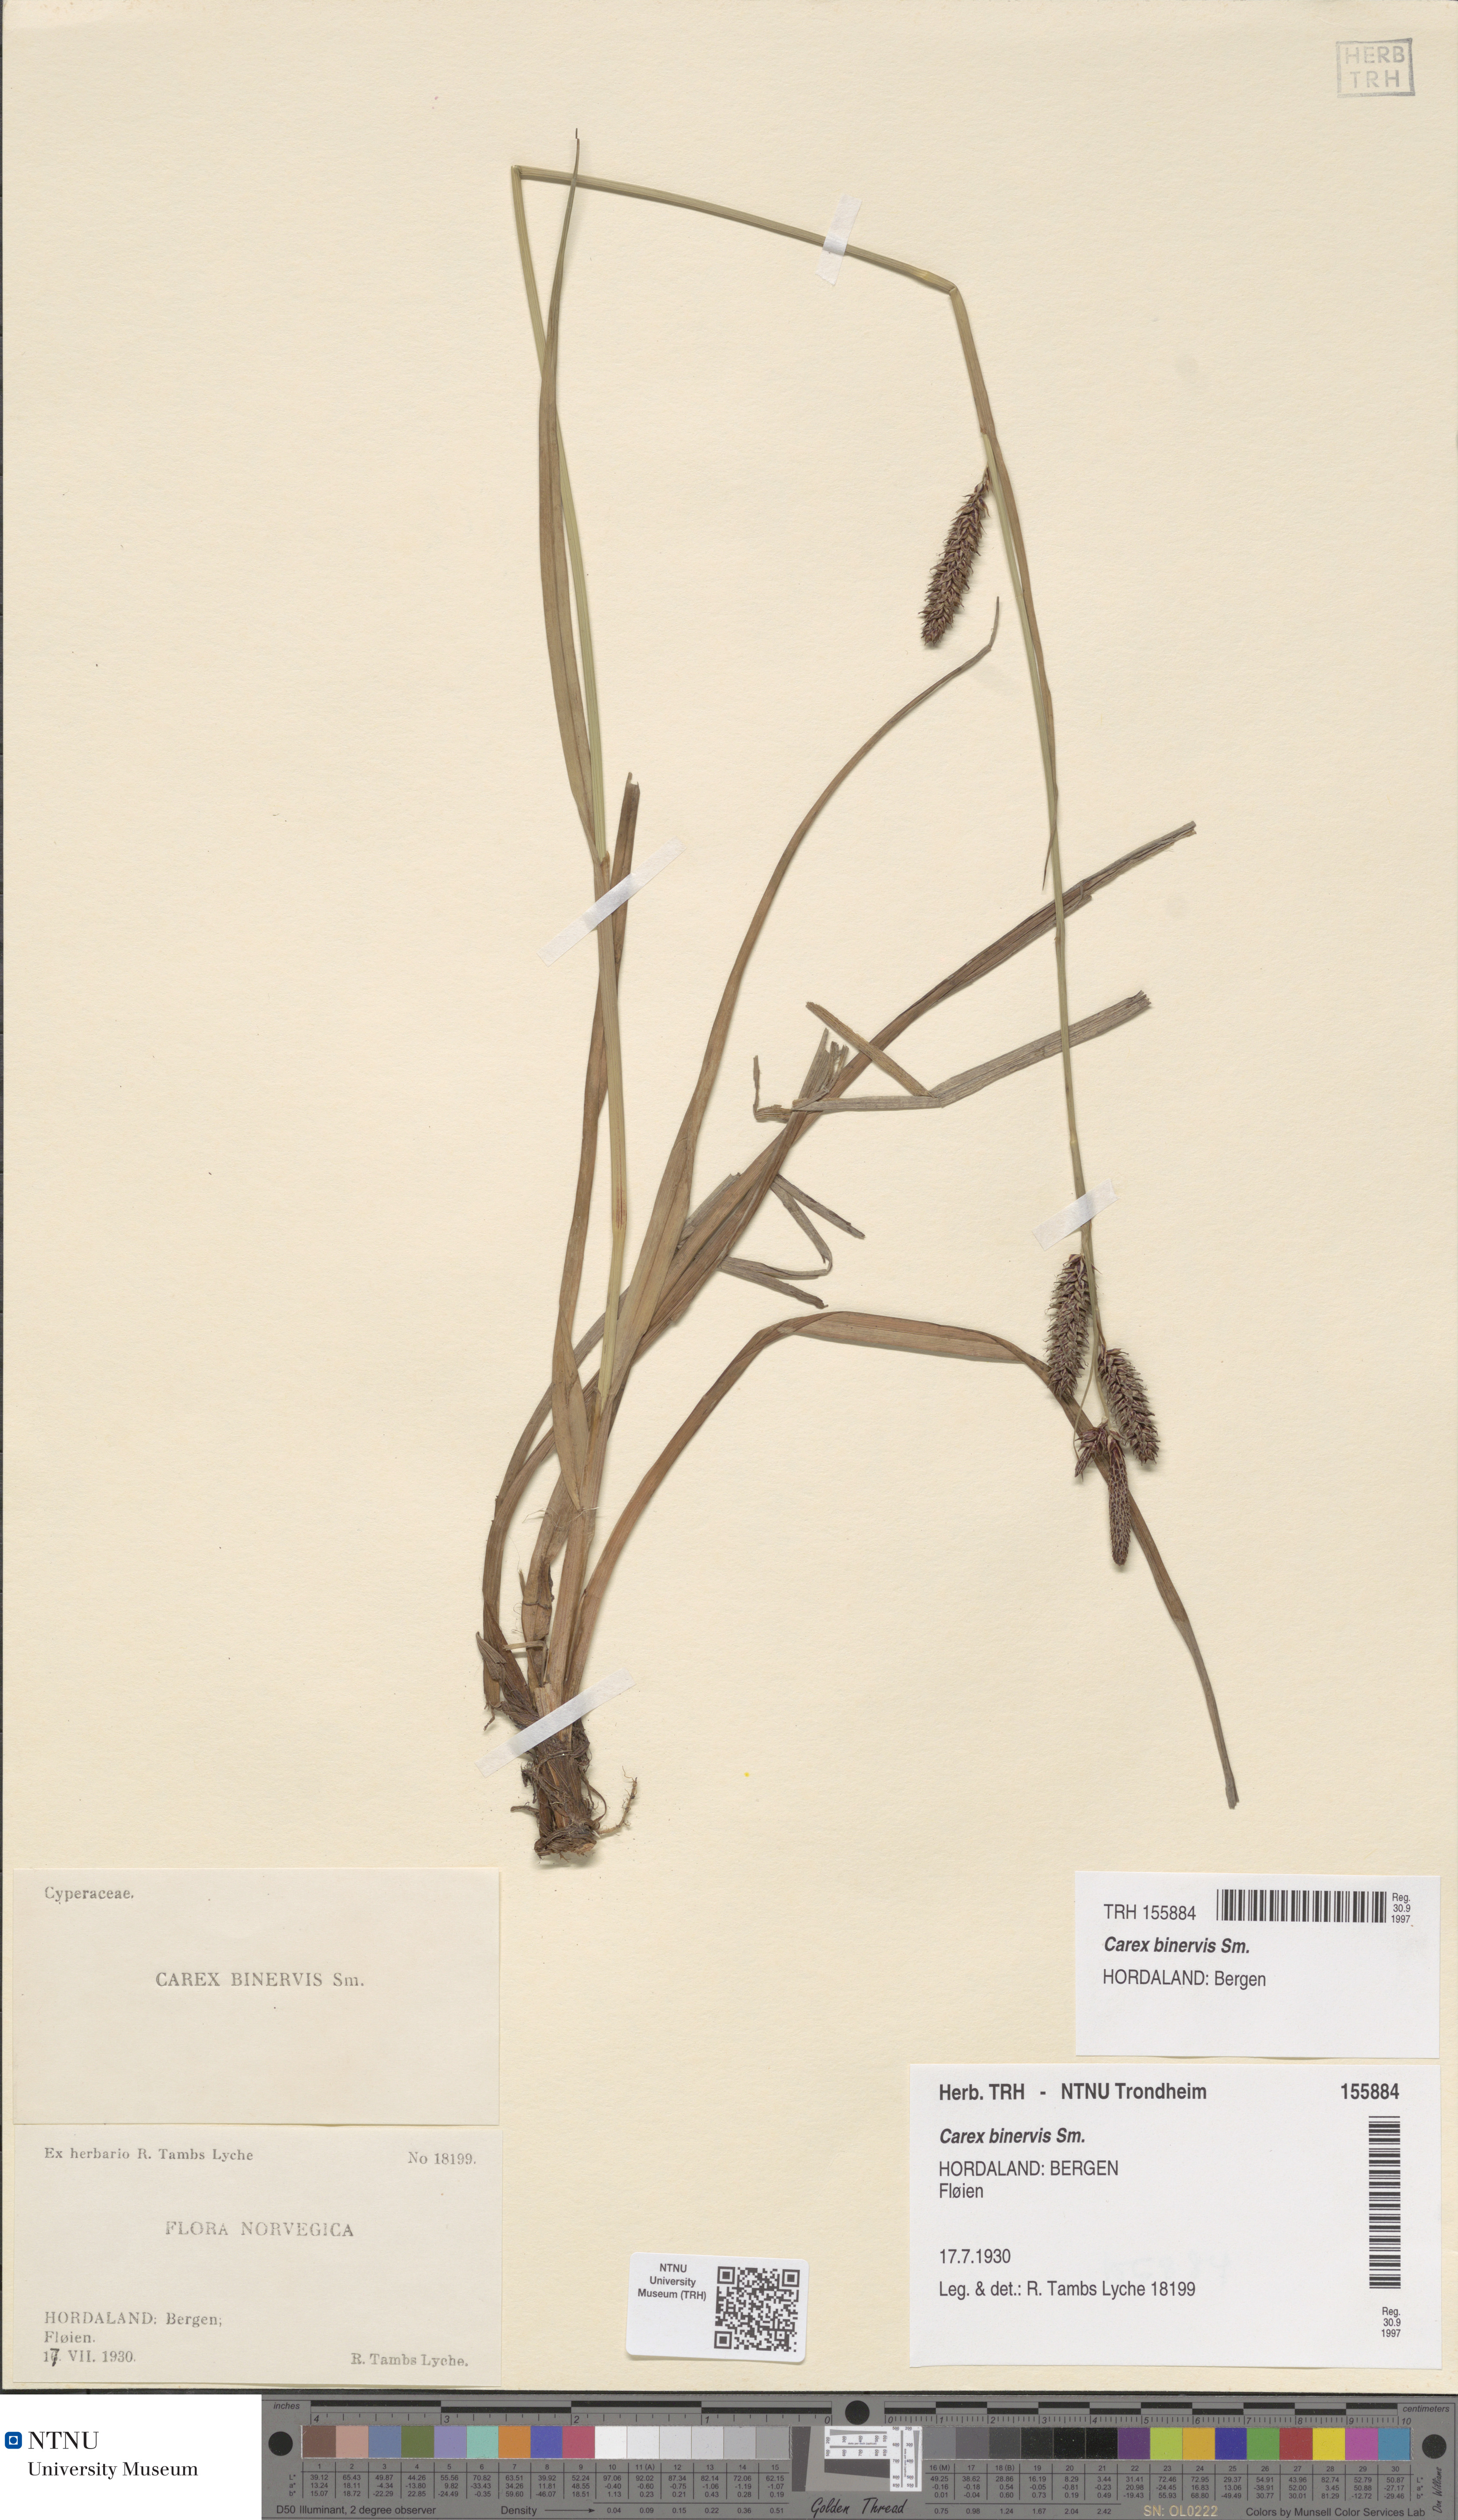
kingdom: Plantae
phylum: Tracheophyta
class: Liliopsida
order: Poales
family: Cyperaceae
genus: Carex
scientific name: Carex binervis
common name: Green-ribbed sedge
